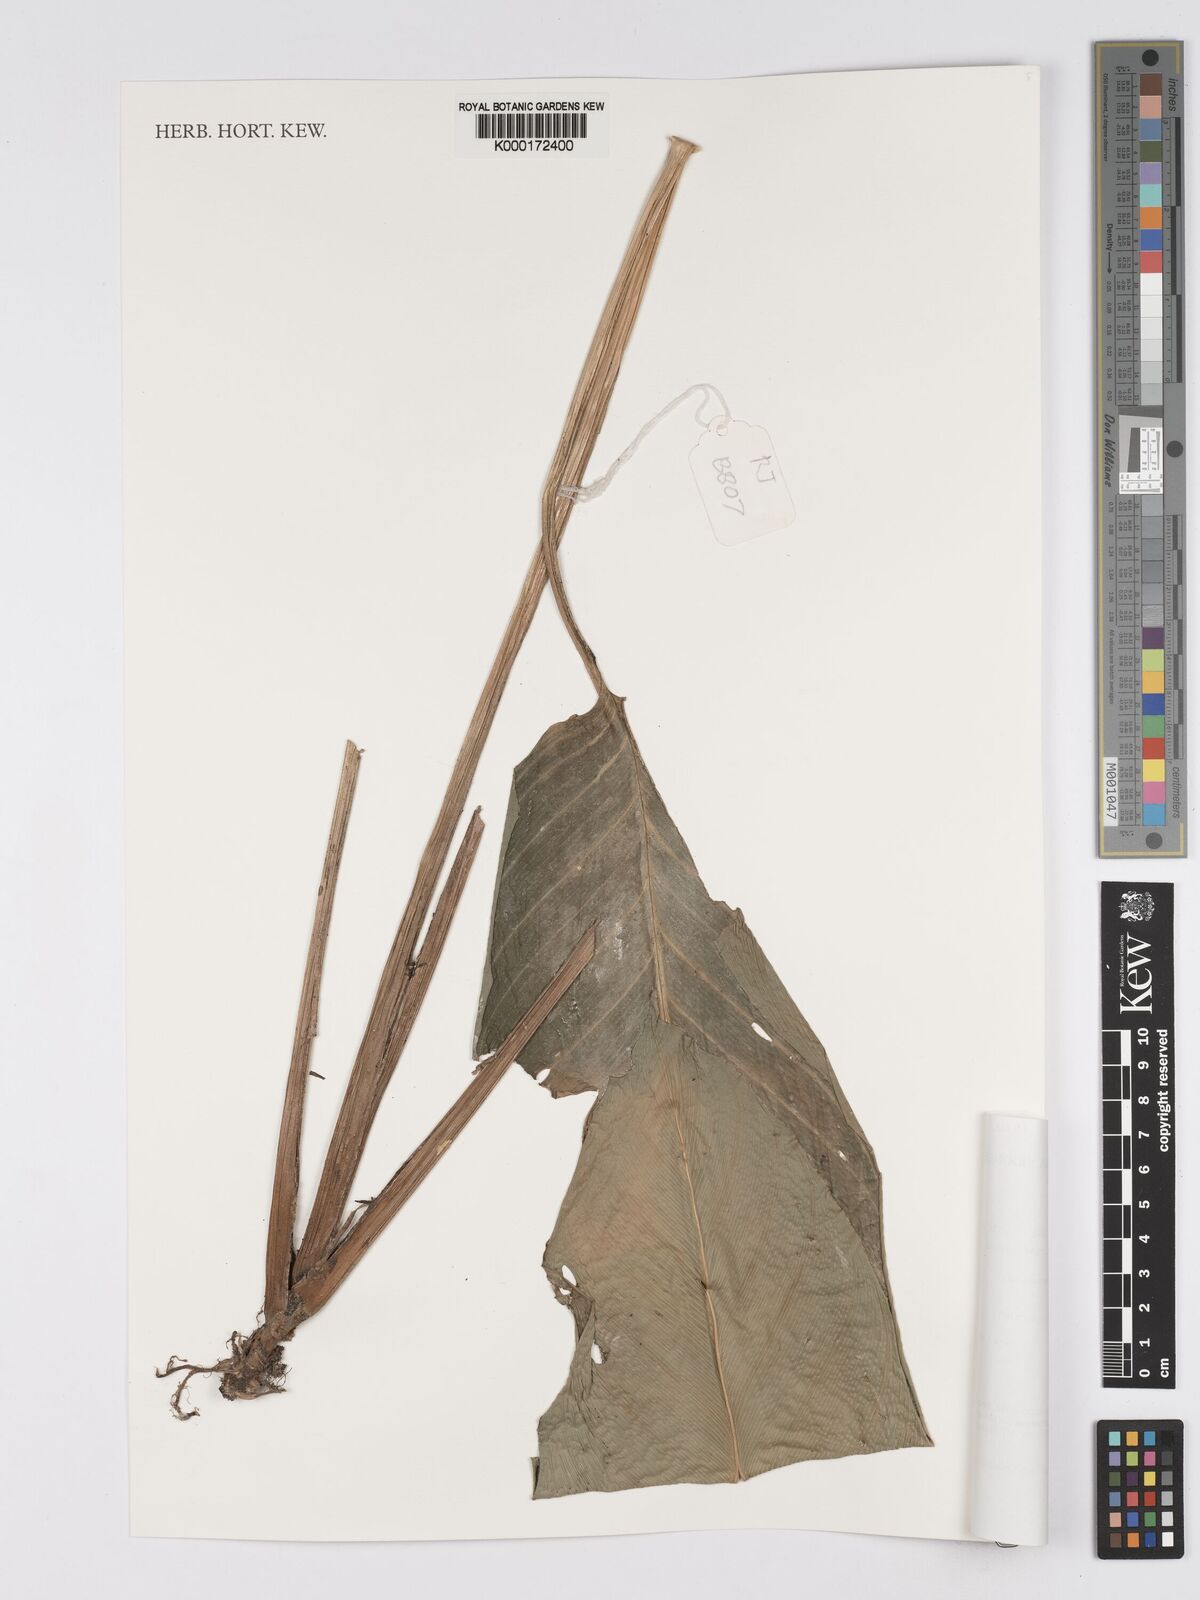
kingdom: Plantae
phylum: Tracheophyta
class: Liliopsida
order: Zingiberales
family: Marantaceae
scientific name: Marantaceae
